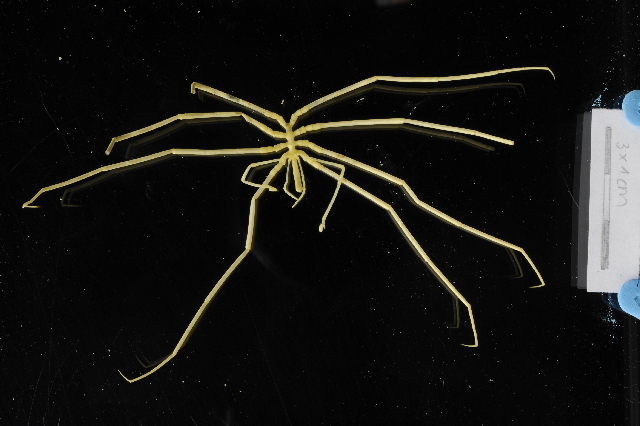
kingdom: Animalia
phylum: Arthropoda
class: Pycnogonida
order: Pantopoda
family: Colossendeidae
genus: Colossendeis
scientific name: Colossendeis drakei
